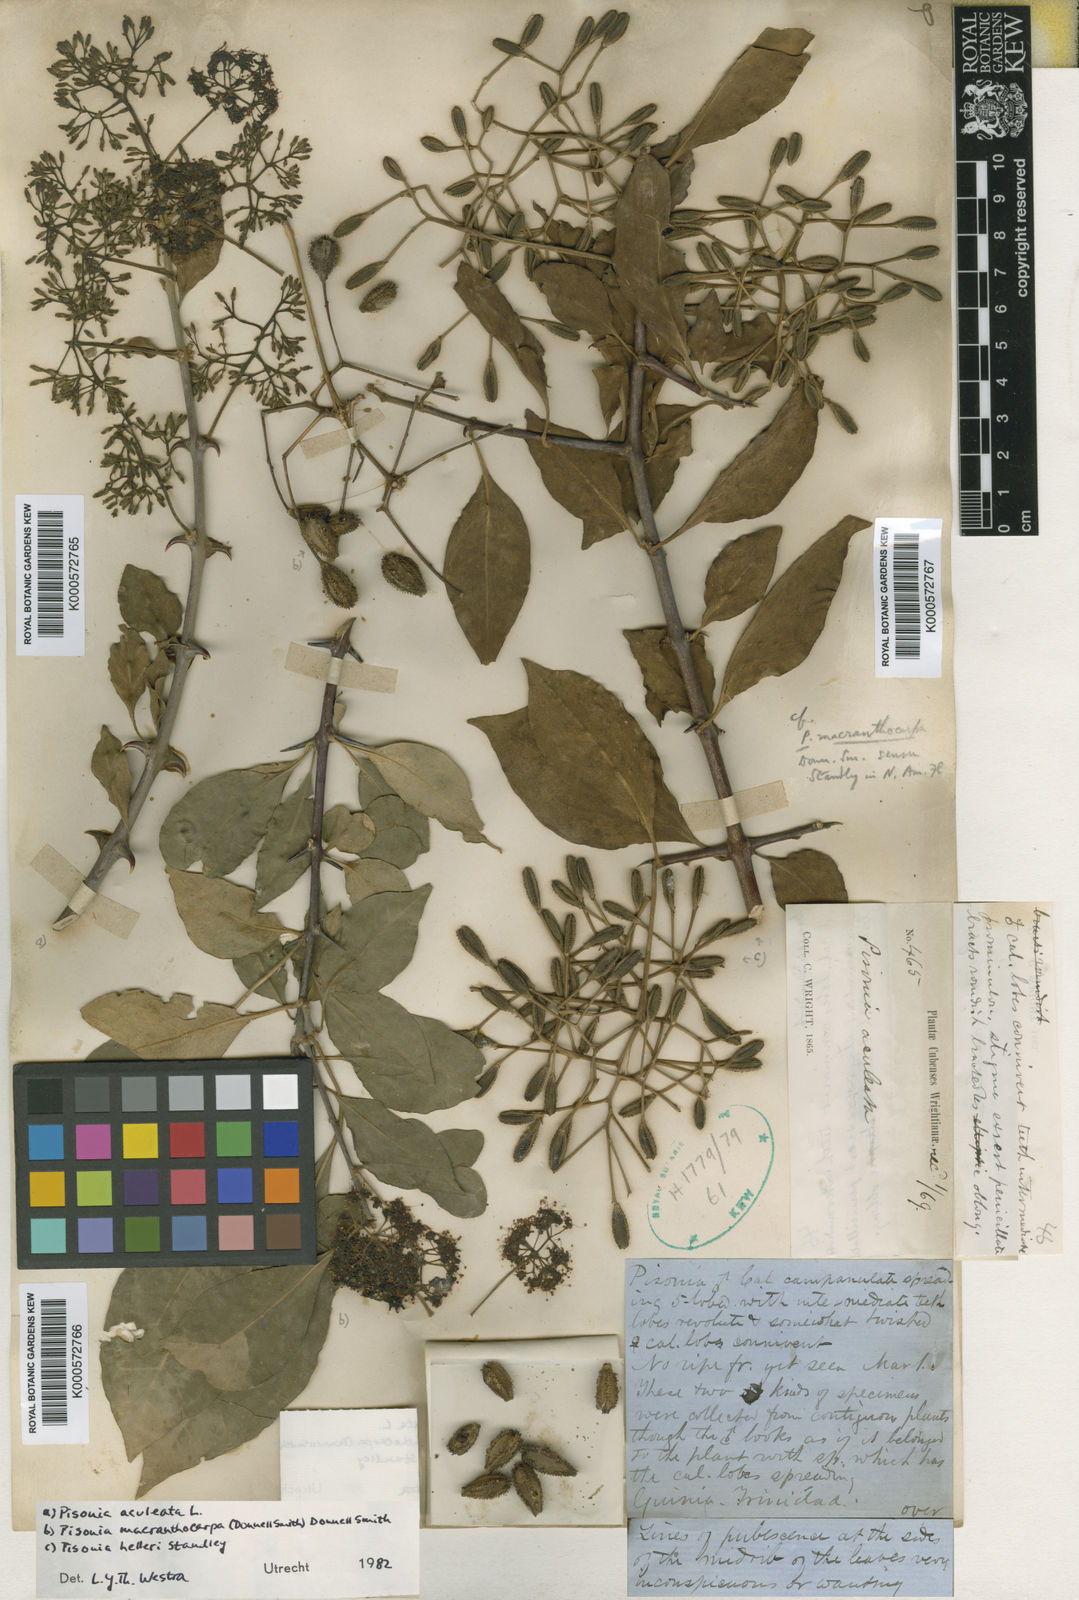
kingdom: Plantae
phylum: Tracheophyta
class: Magnoliopsida
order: Caryophyllales
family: Nyctaginaceae
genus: Pisonia
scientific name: Pisonia aculeata
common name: Cockspur vine
